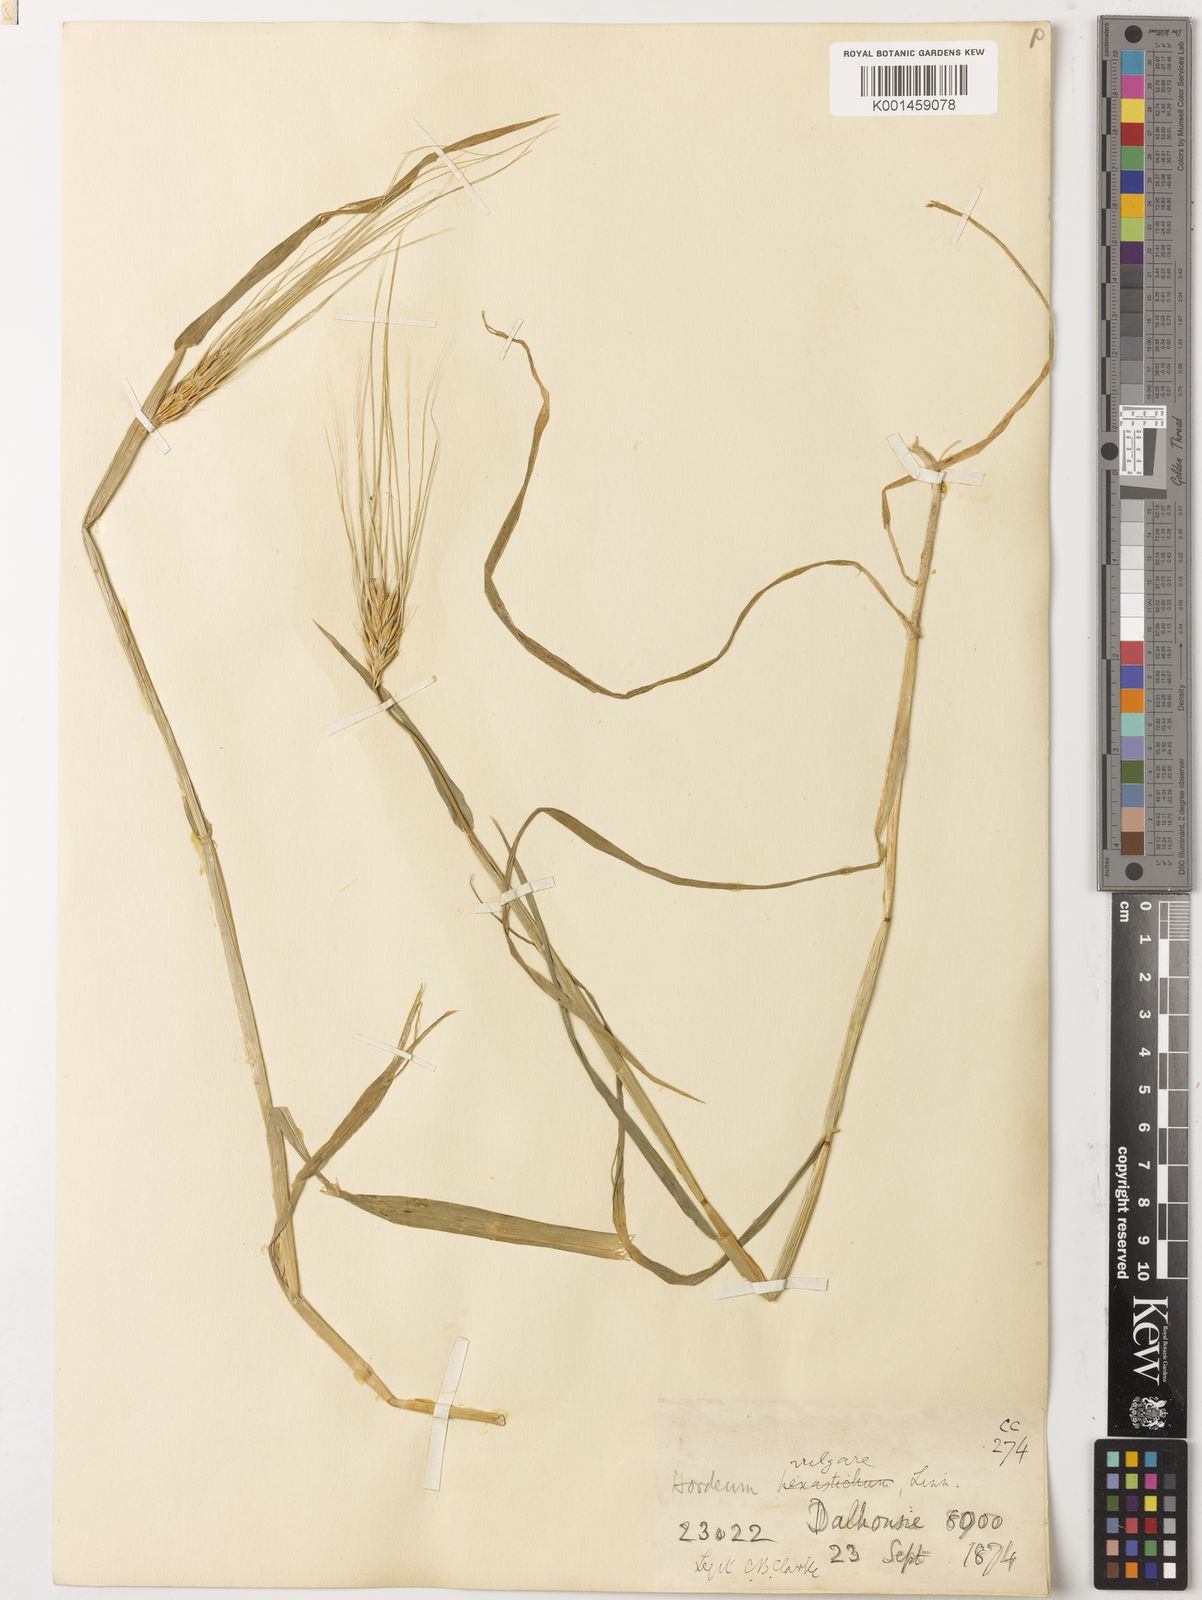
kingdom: Plantae
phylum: Tracheophyta
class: Liliopsida
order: Poales
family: Poaceae
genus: Hordeum
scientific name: Hordeum vulgare
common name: Common barley
